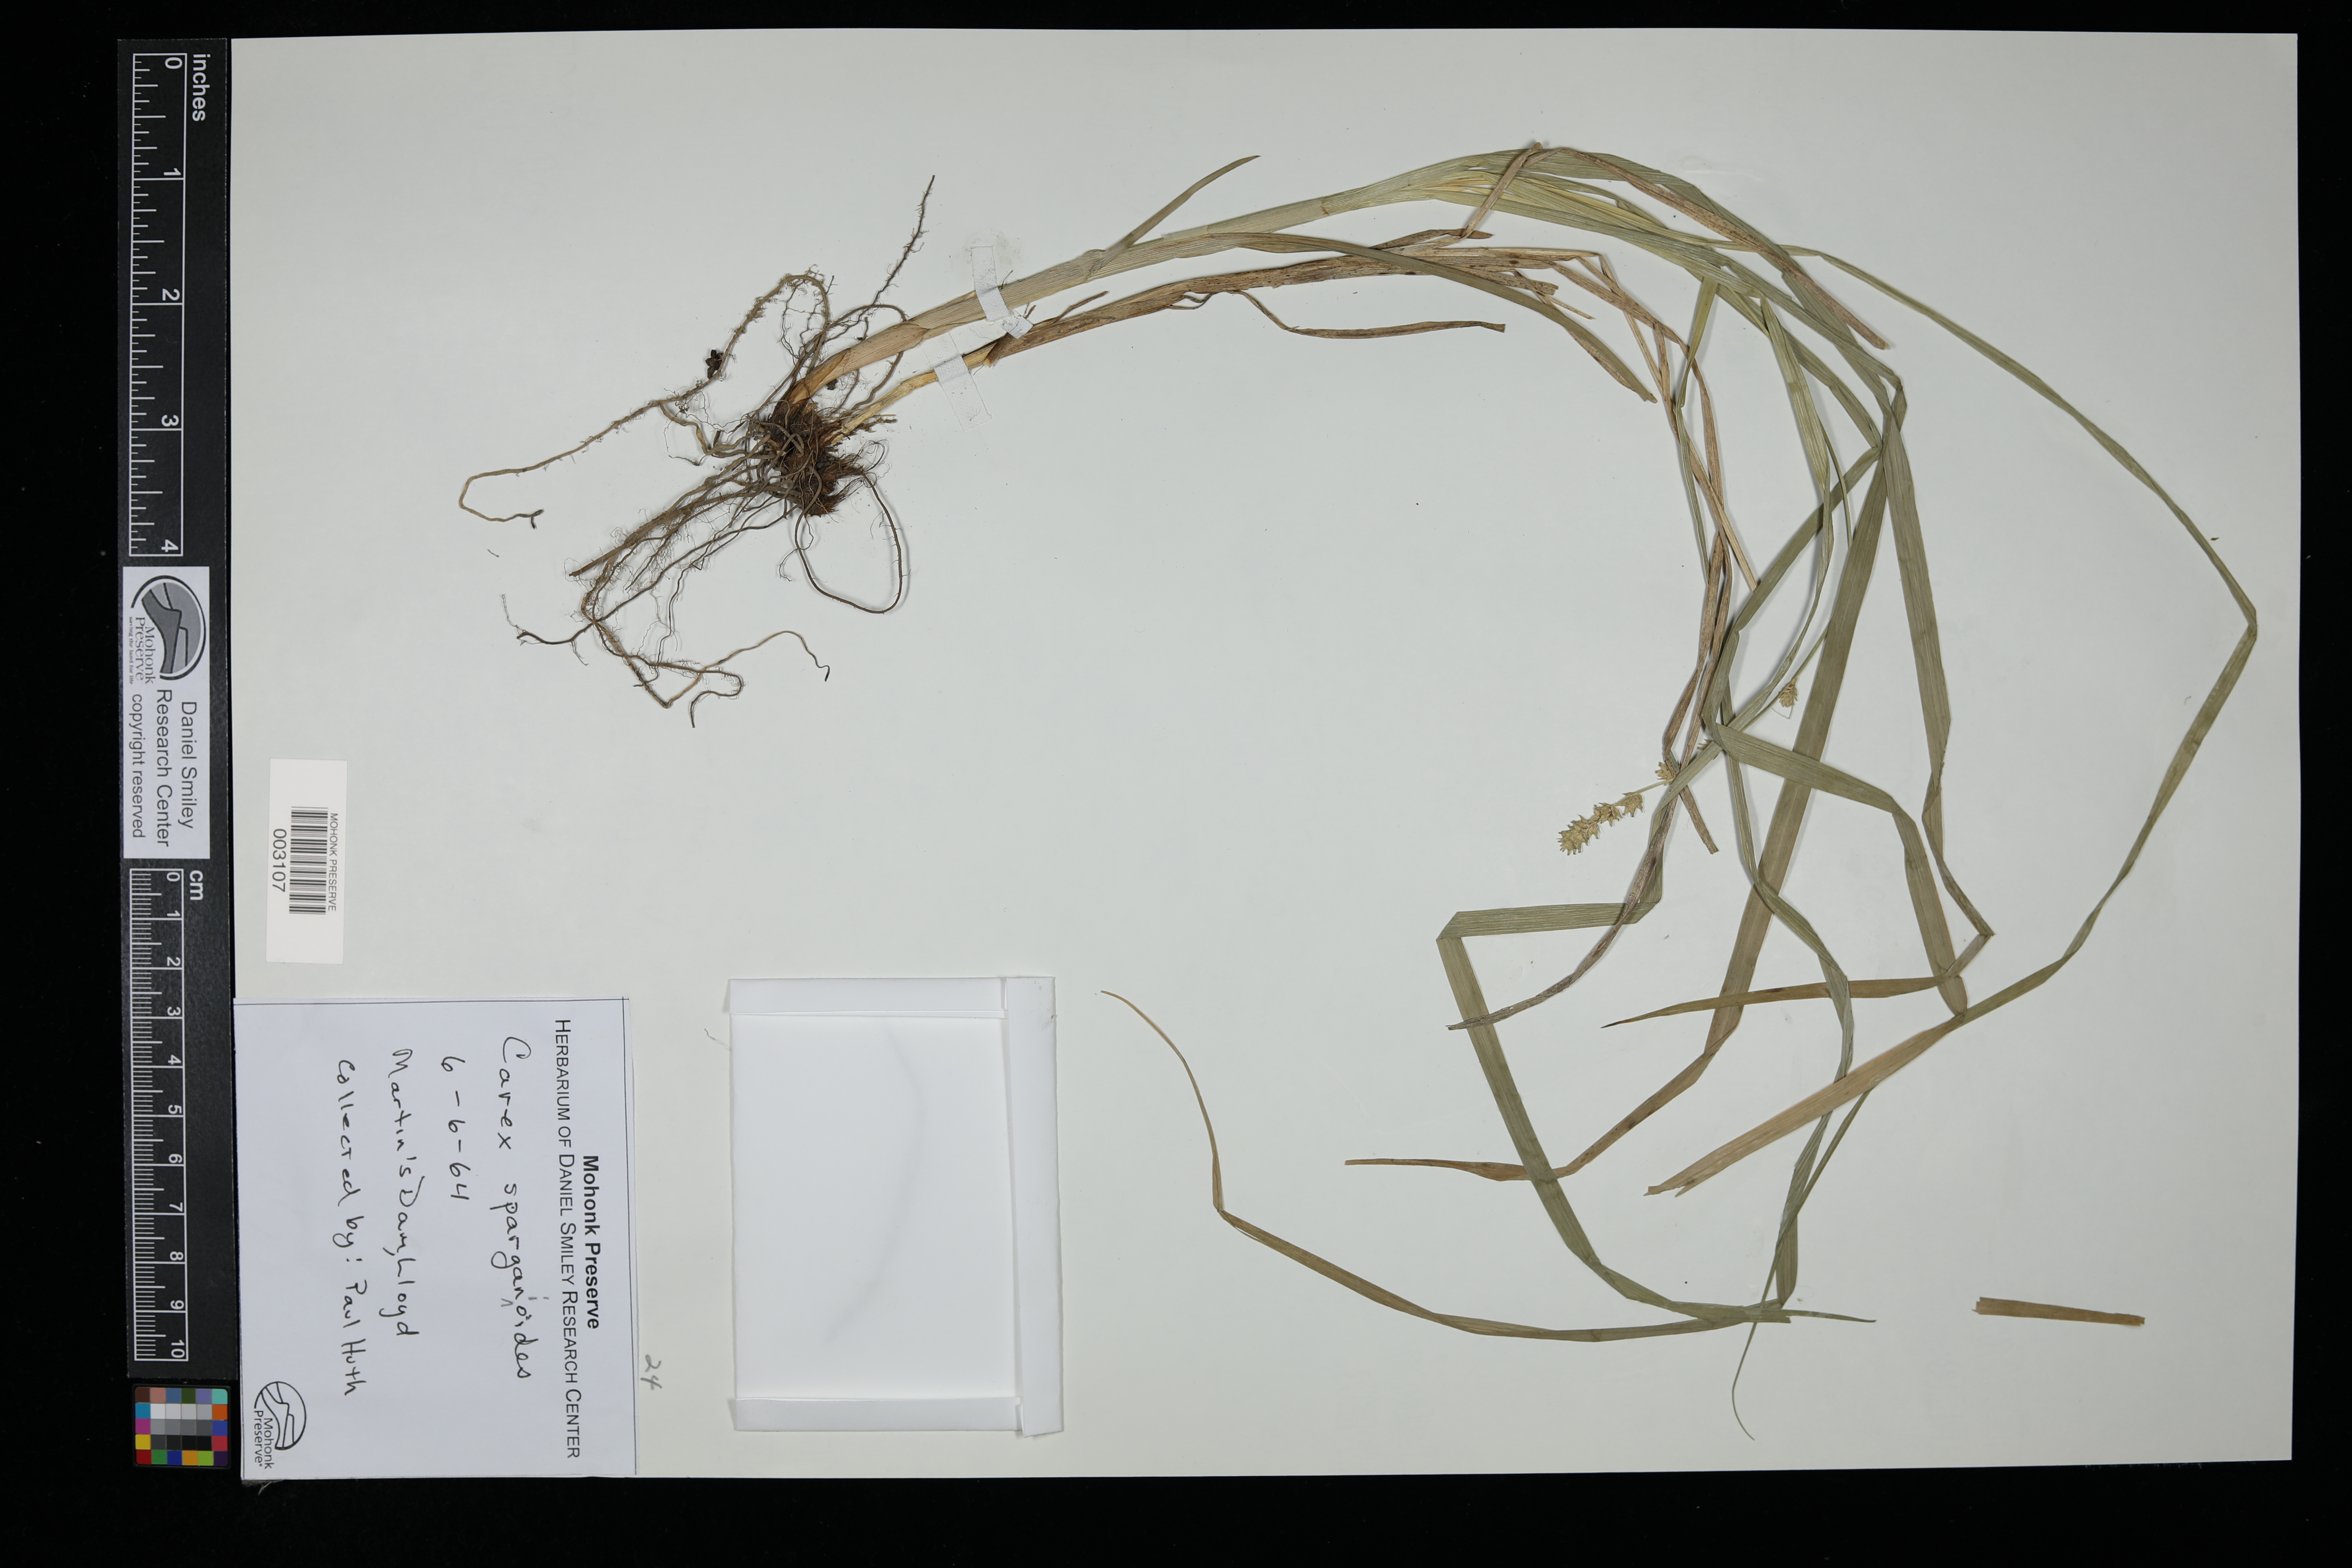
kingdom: Plantae
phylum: Tracheophyta
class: Liliopsida
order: Poales
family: Cyperaceae
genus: Carex
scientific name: Carex sparganioides
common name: Burreed sedge
